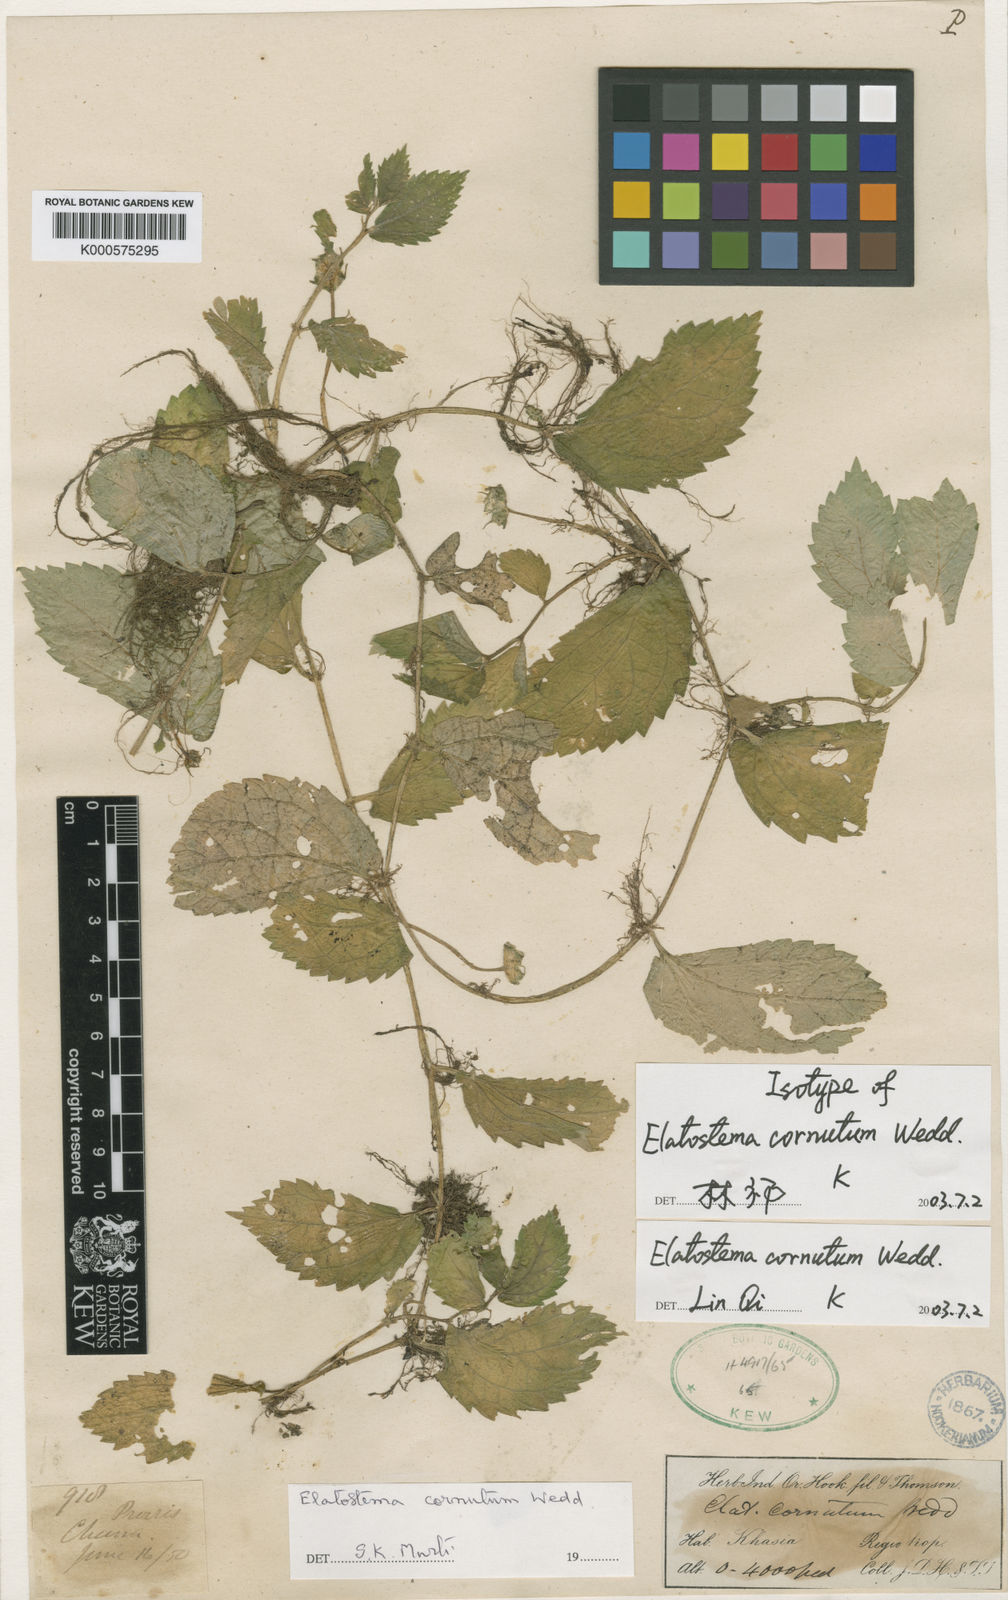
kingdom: Plantae
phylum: Tracheophyta
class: Magnoliopsida
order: Rosales
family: Urticaceae
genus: Elatostema
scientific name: Elatostema cornutum
